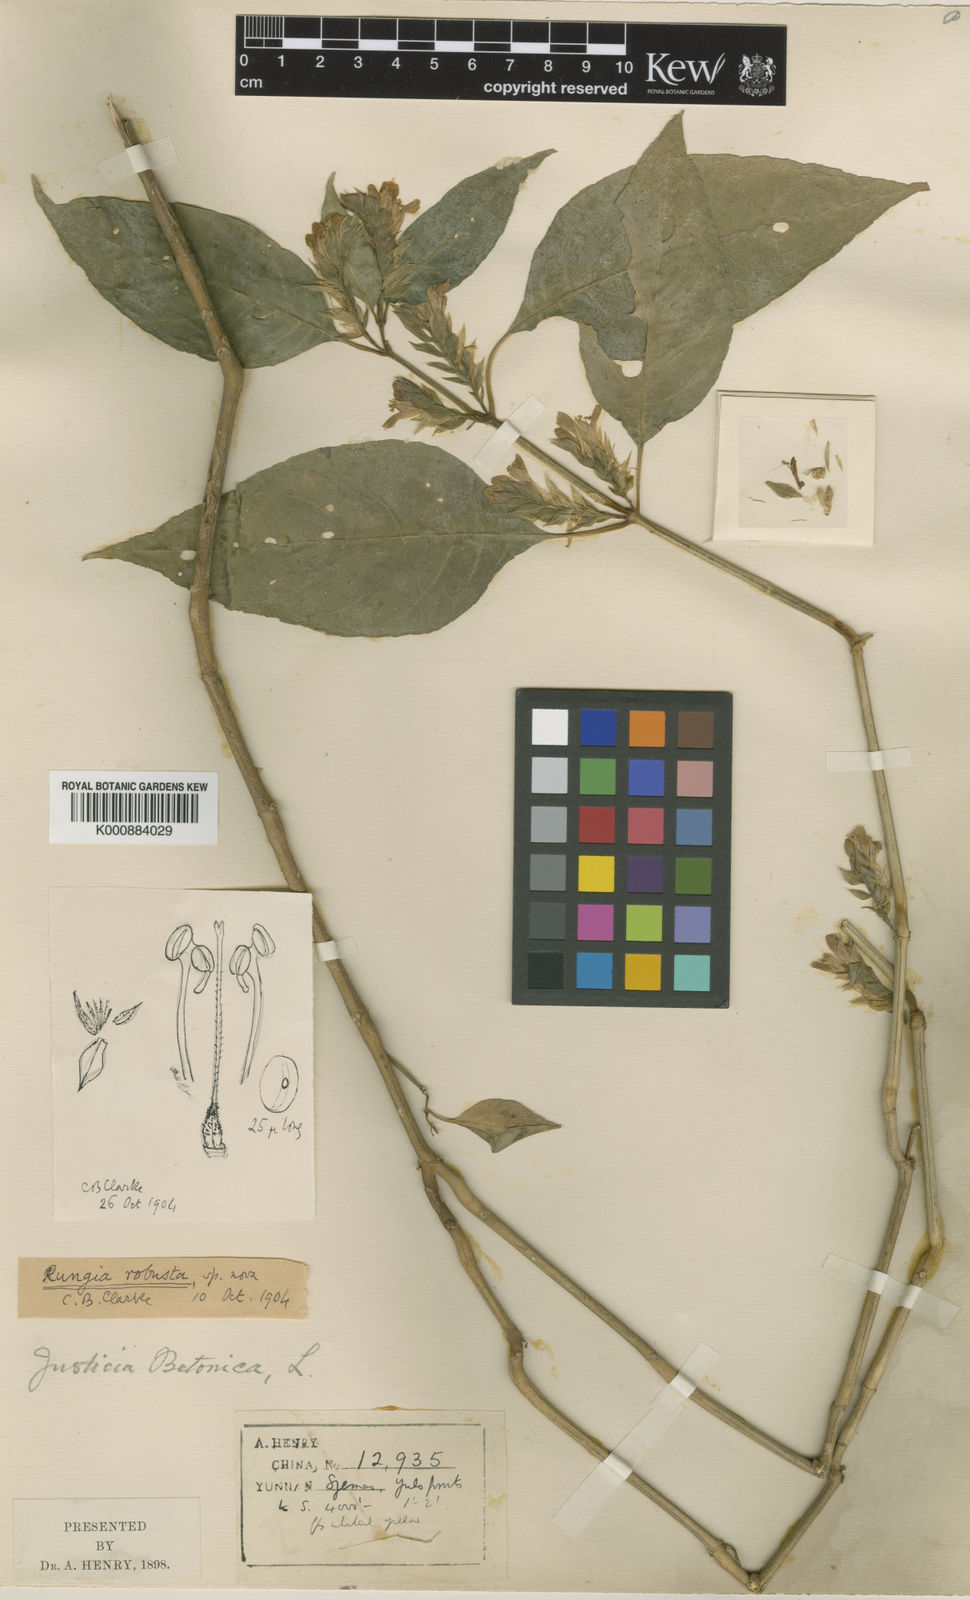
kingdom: Plantae
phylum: Tracheophyta
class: Magnoliopsida
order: Lamiales
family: Acanthaceae
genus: Justicia
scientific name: Justicia maxima
